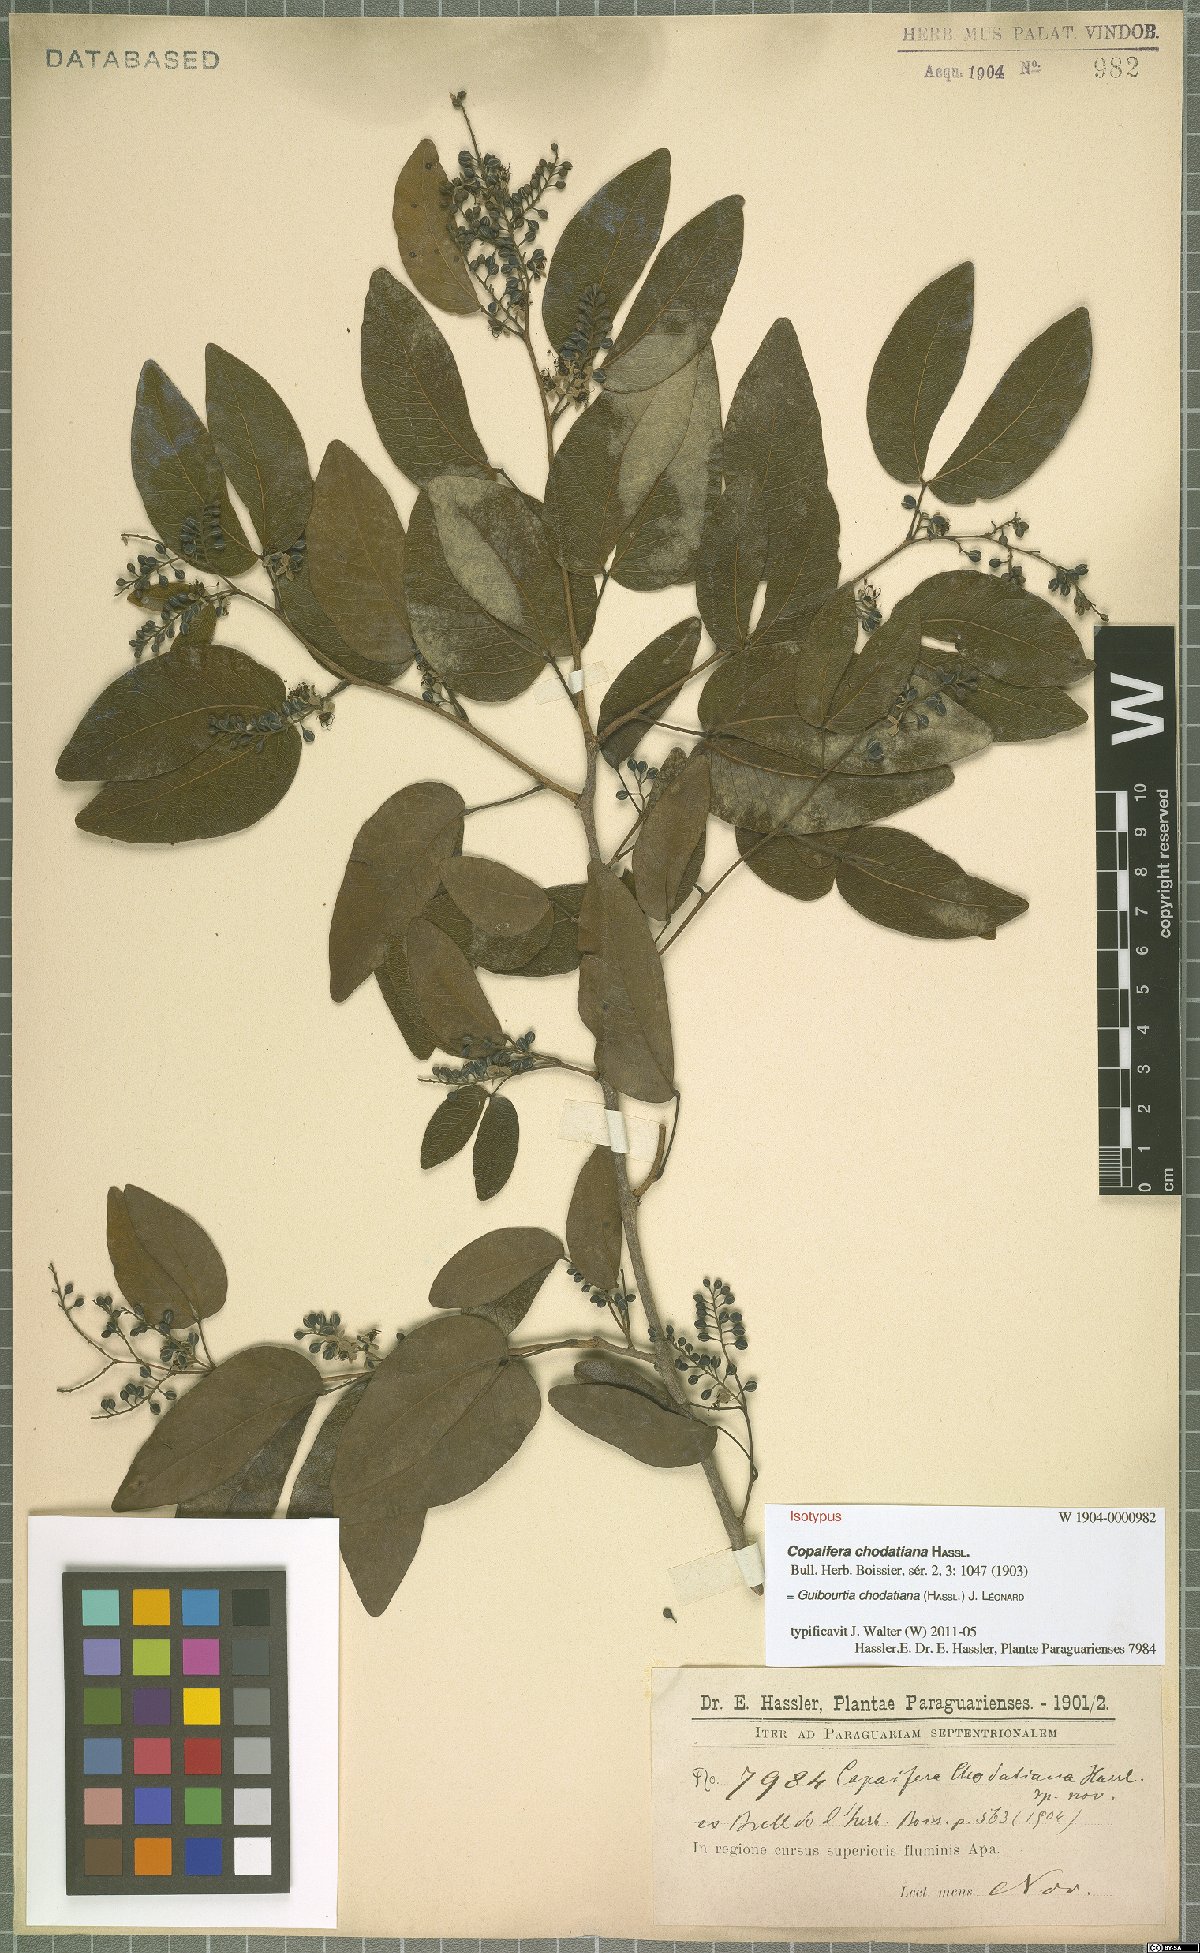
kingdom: Plantae
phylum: Tracheophyta
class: Magnoliopsida
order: Fabales
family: Fabaceae
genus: Guibourtia
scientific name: Guibourtia chodatiana
